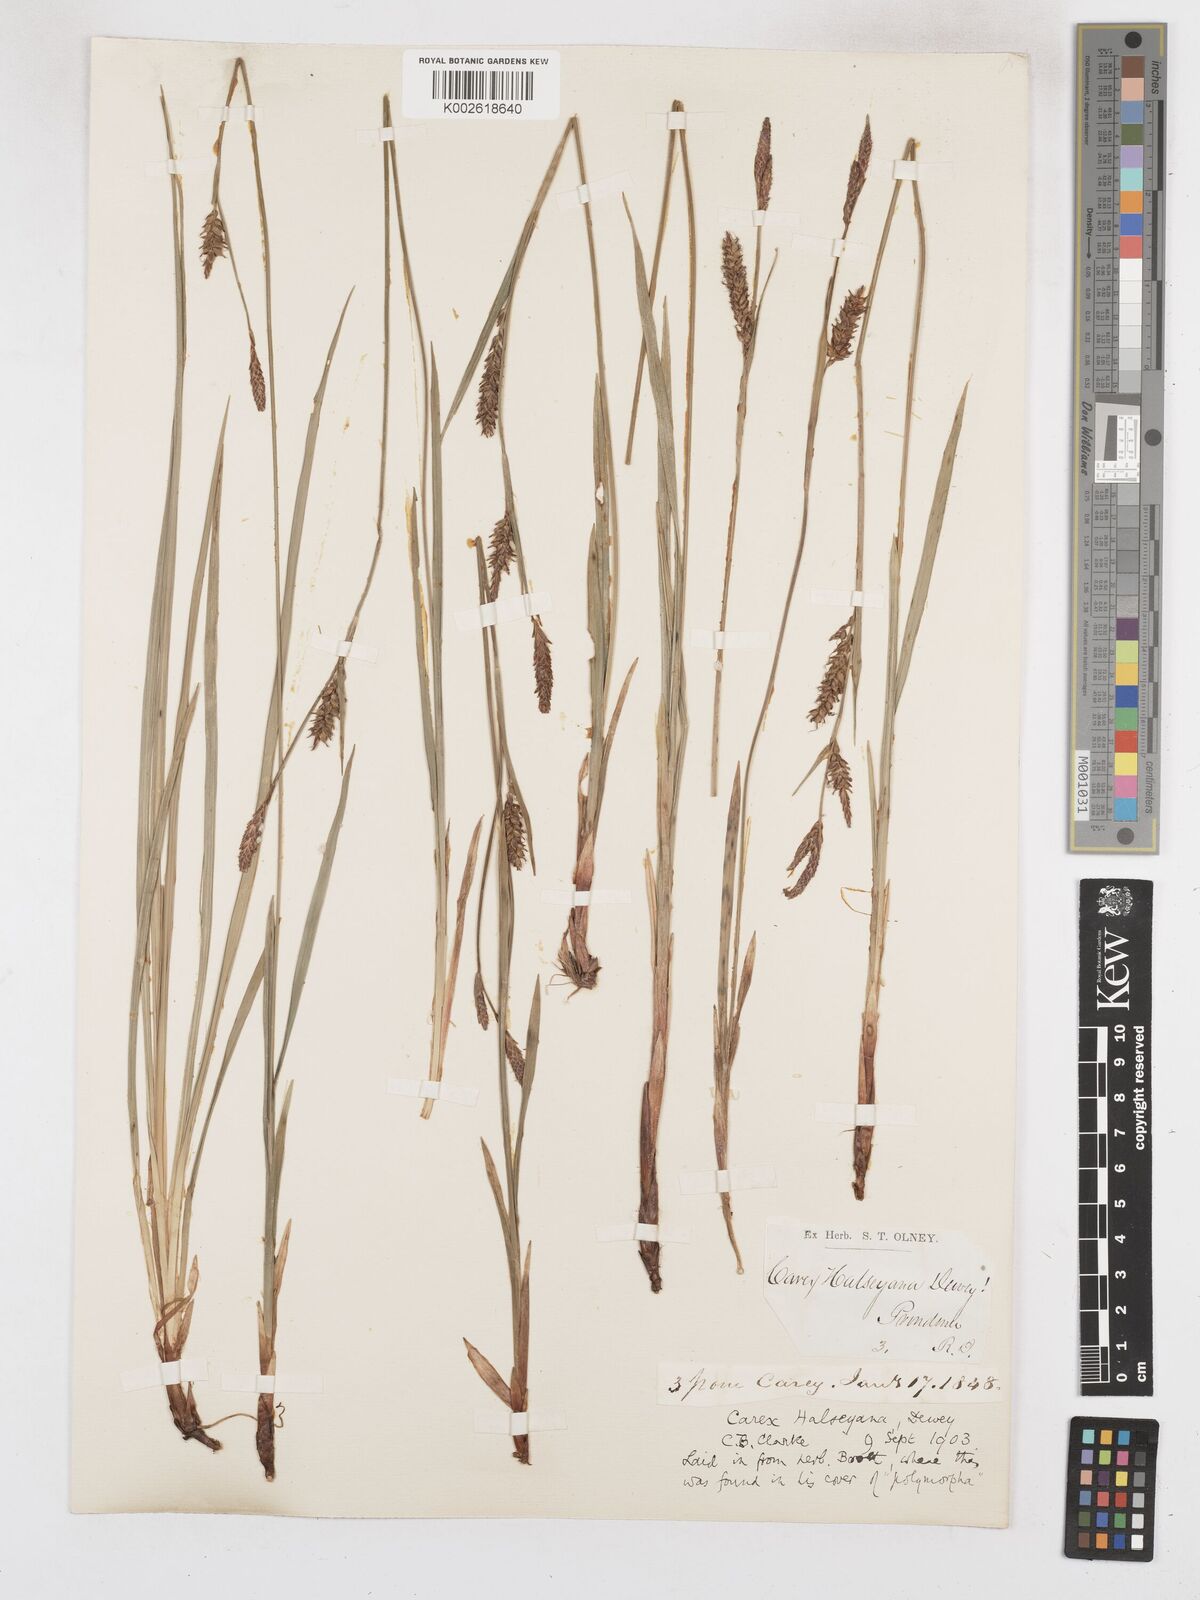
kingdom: Plantae
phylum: Tracheophyta
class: Liliopsida
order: Poales
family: Cyperaceae
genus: Carex
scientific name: Carex polymorpha
